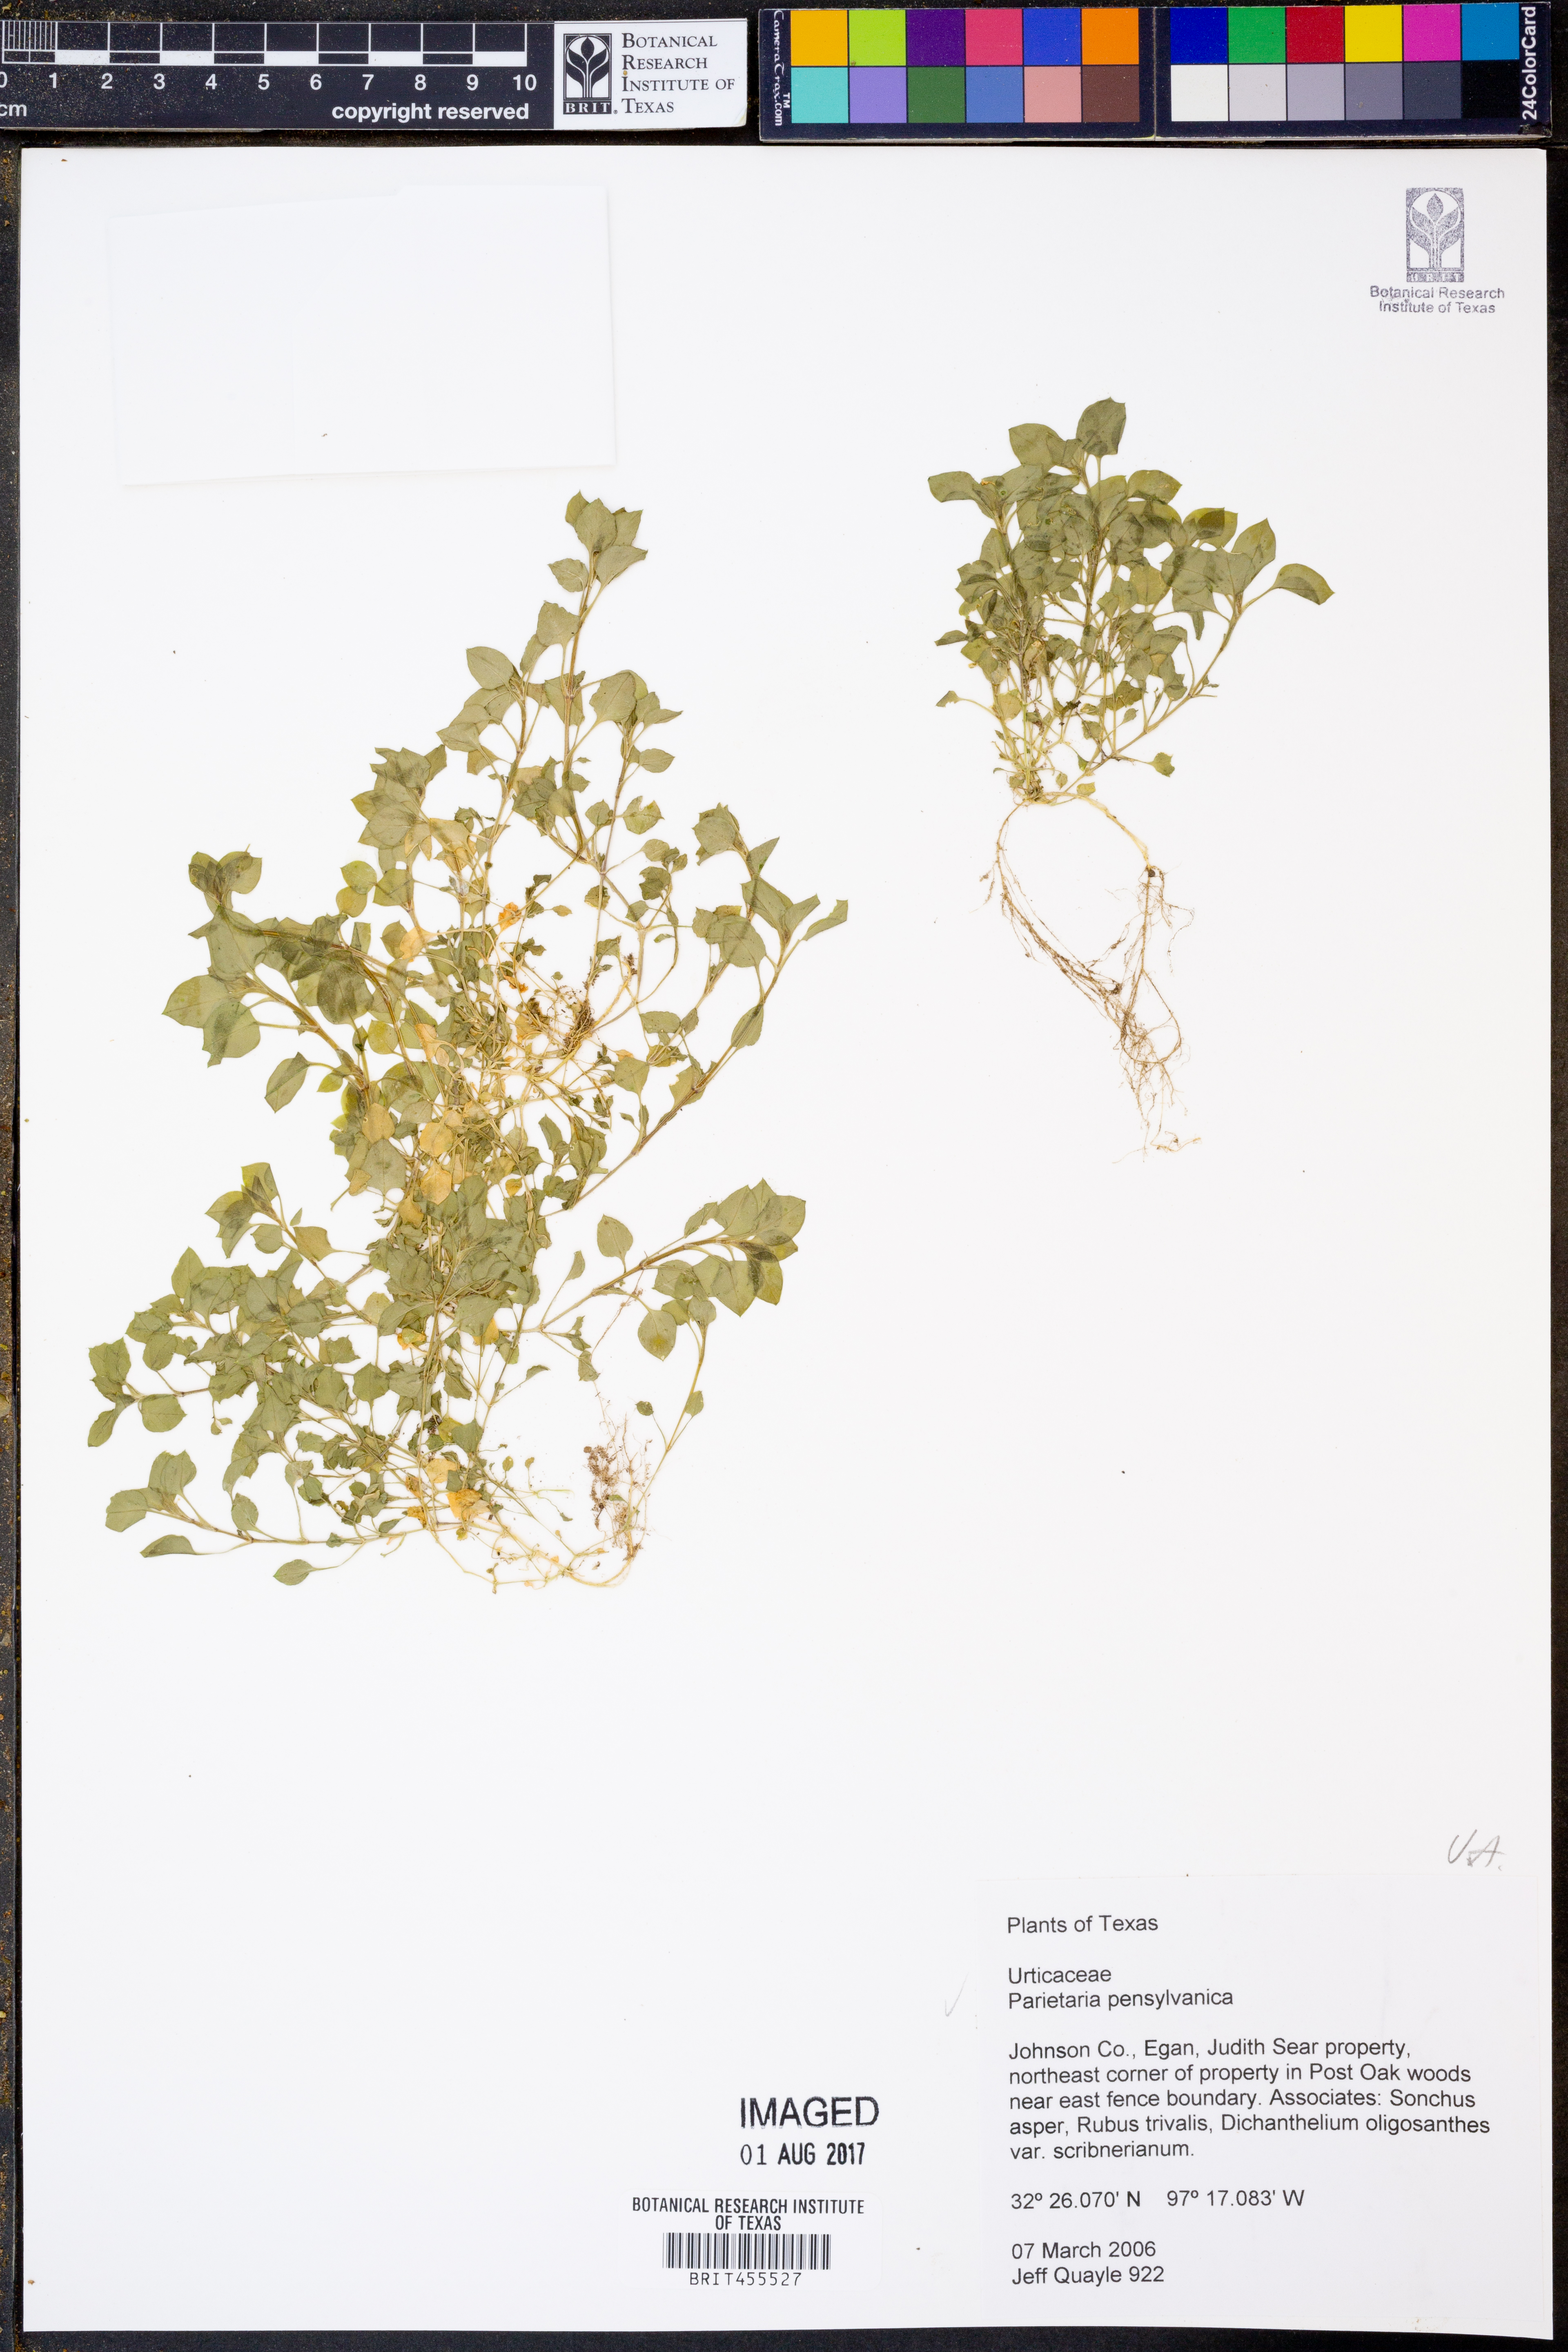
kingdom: Plantae
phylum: Tracheophyta
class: Magnoliopsida
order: Rosales
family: Urticaceae
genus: Parietaria
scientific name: Parietaria pensylvanica
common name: Pennsylvania pellitory
